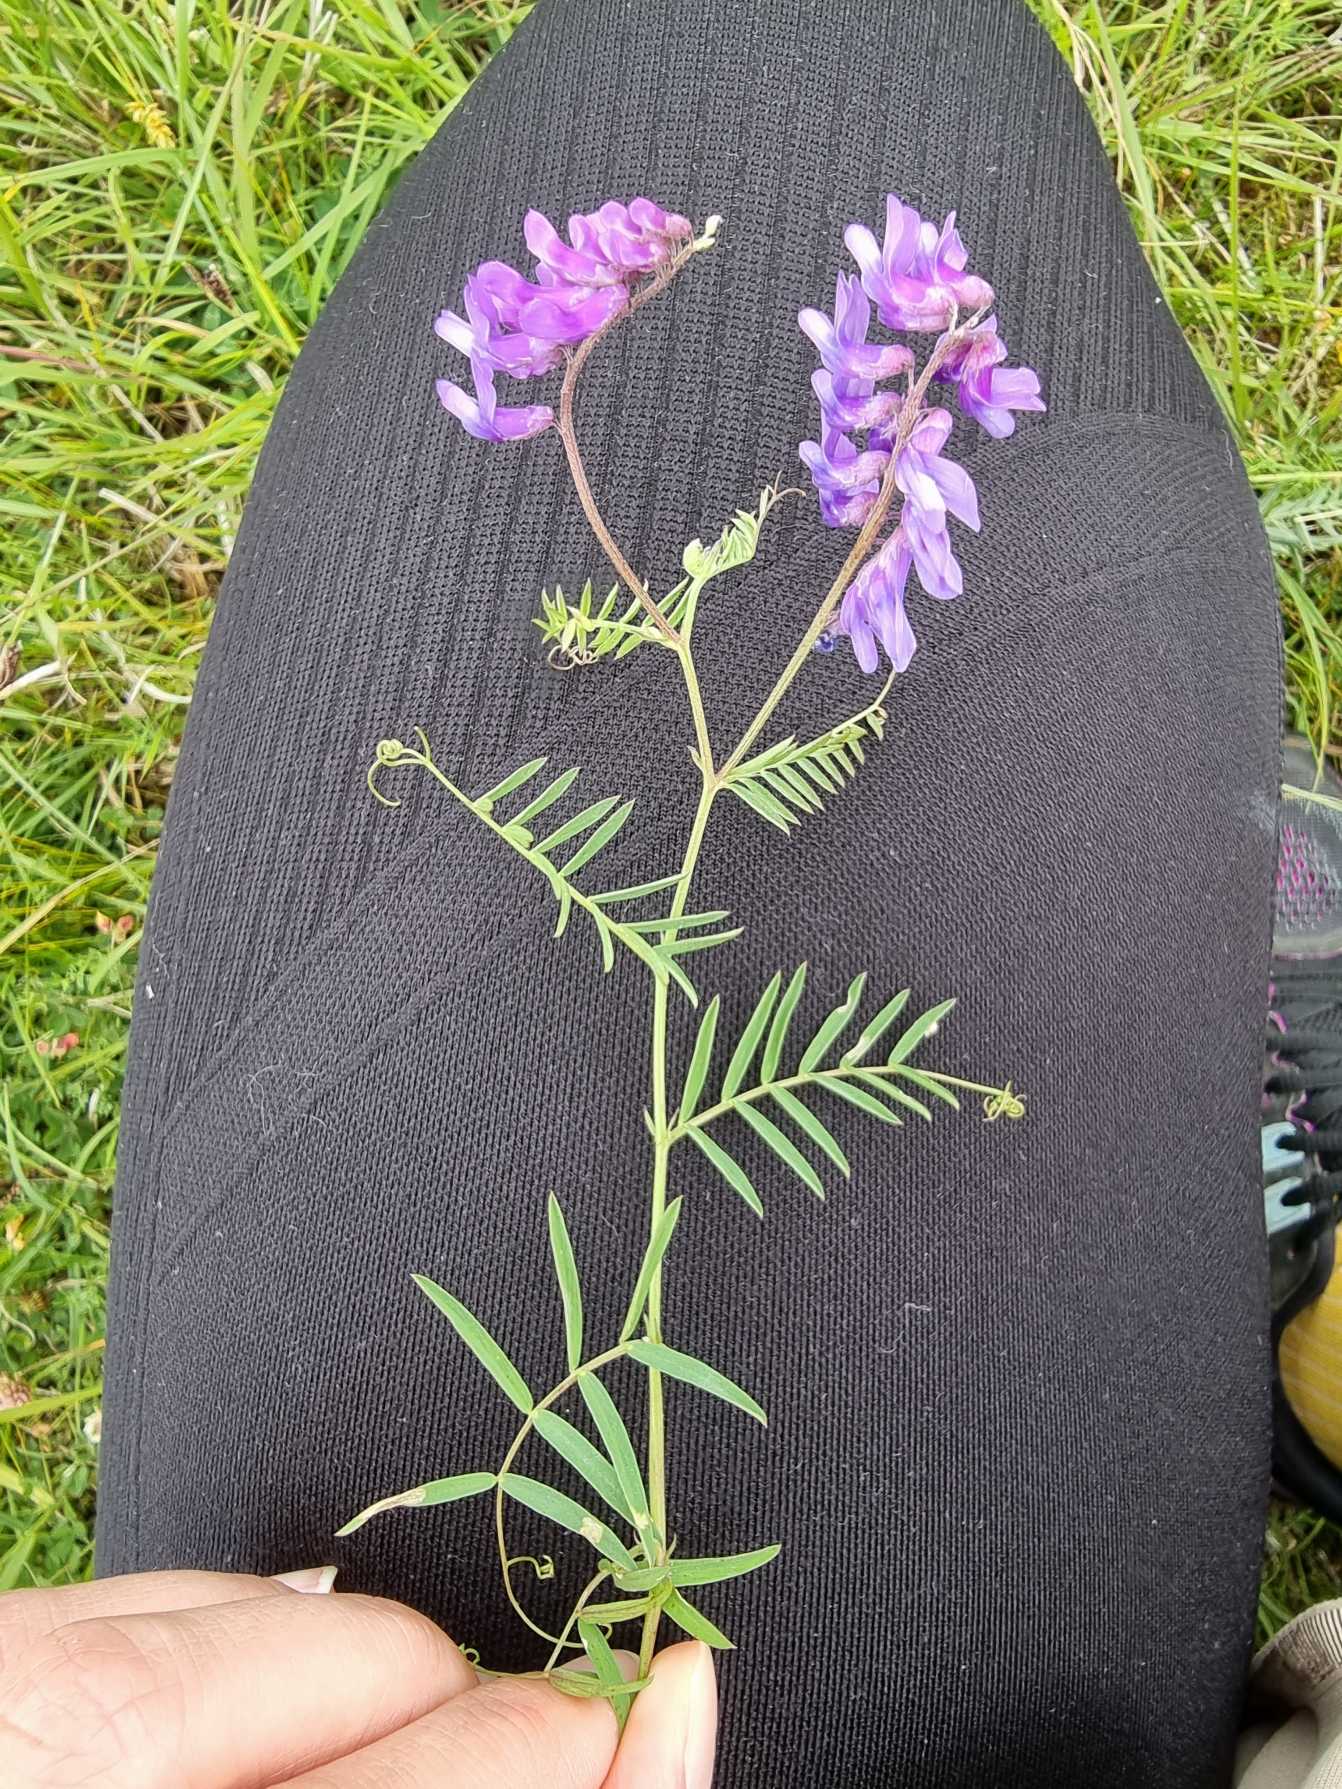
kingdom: Plantae
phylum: Tracheophyta
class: Magnoliopsida
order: Fabales
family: Fabaceae
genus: Vicia
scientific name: Vicia cracca
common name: Muse-vikke
